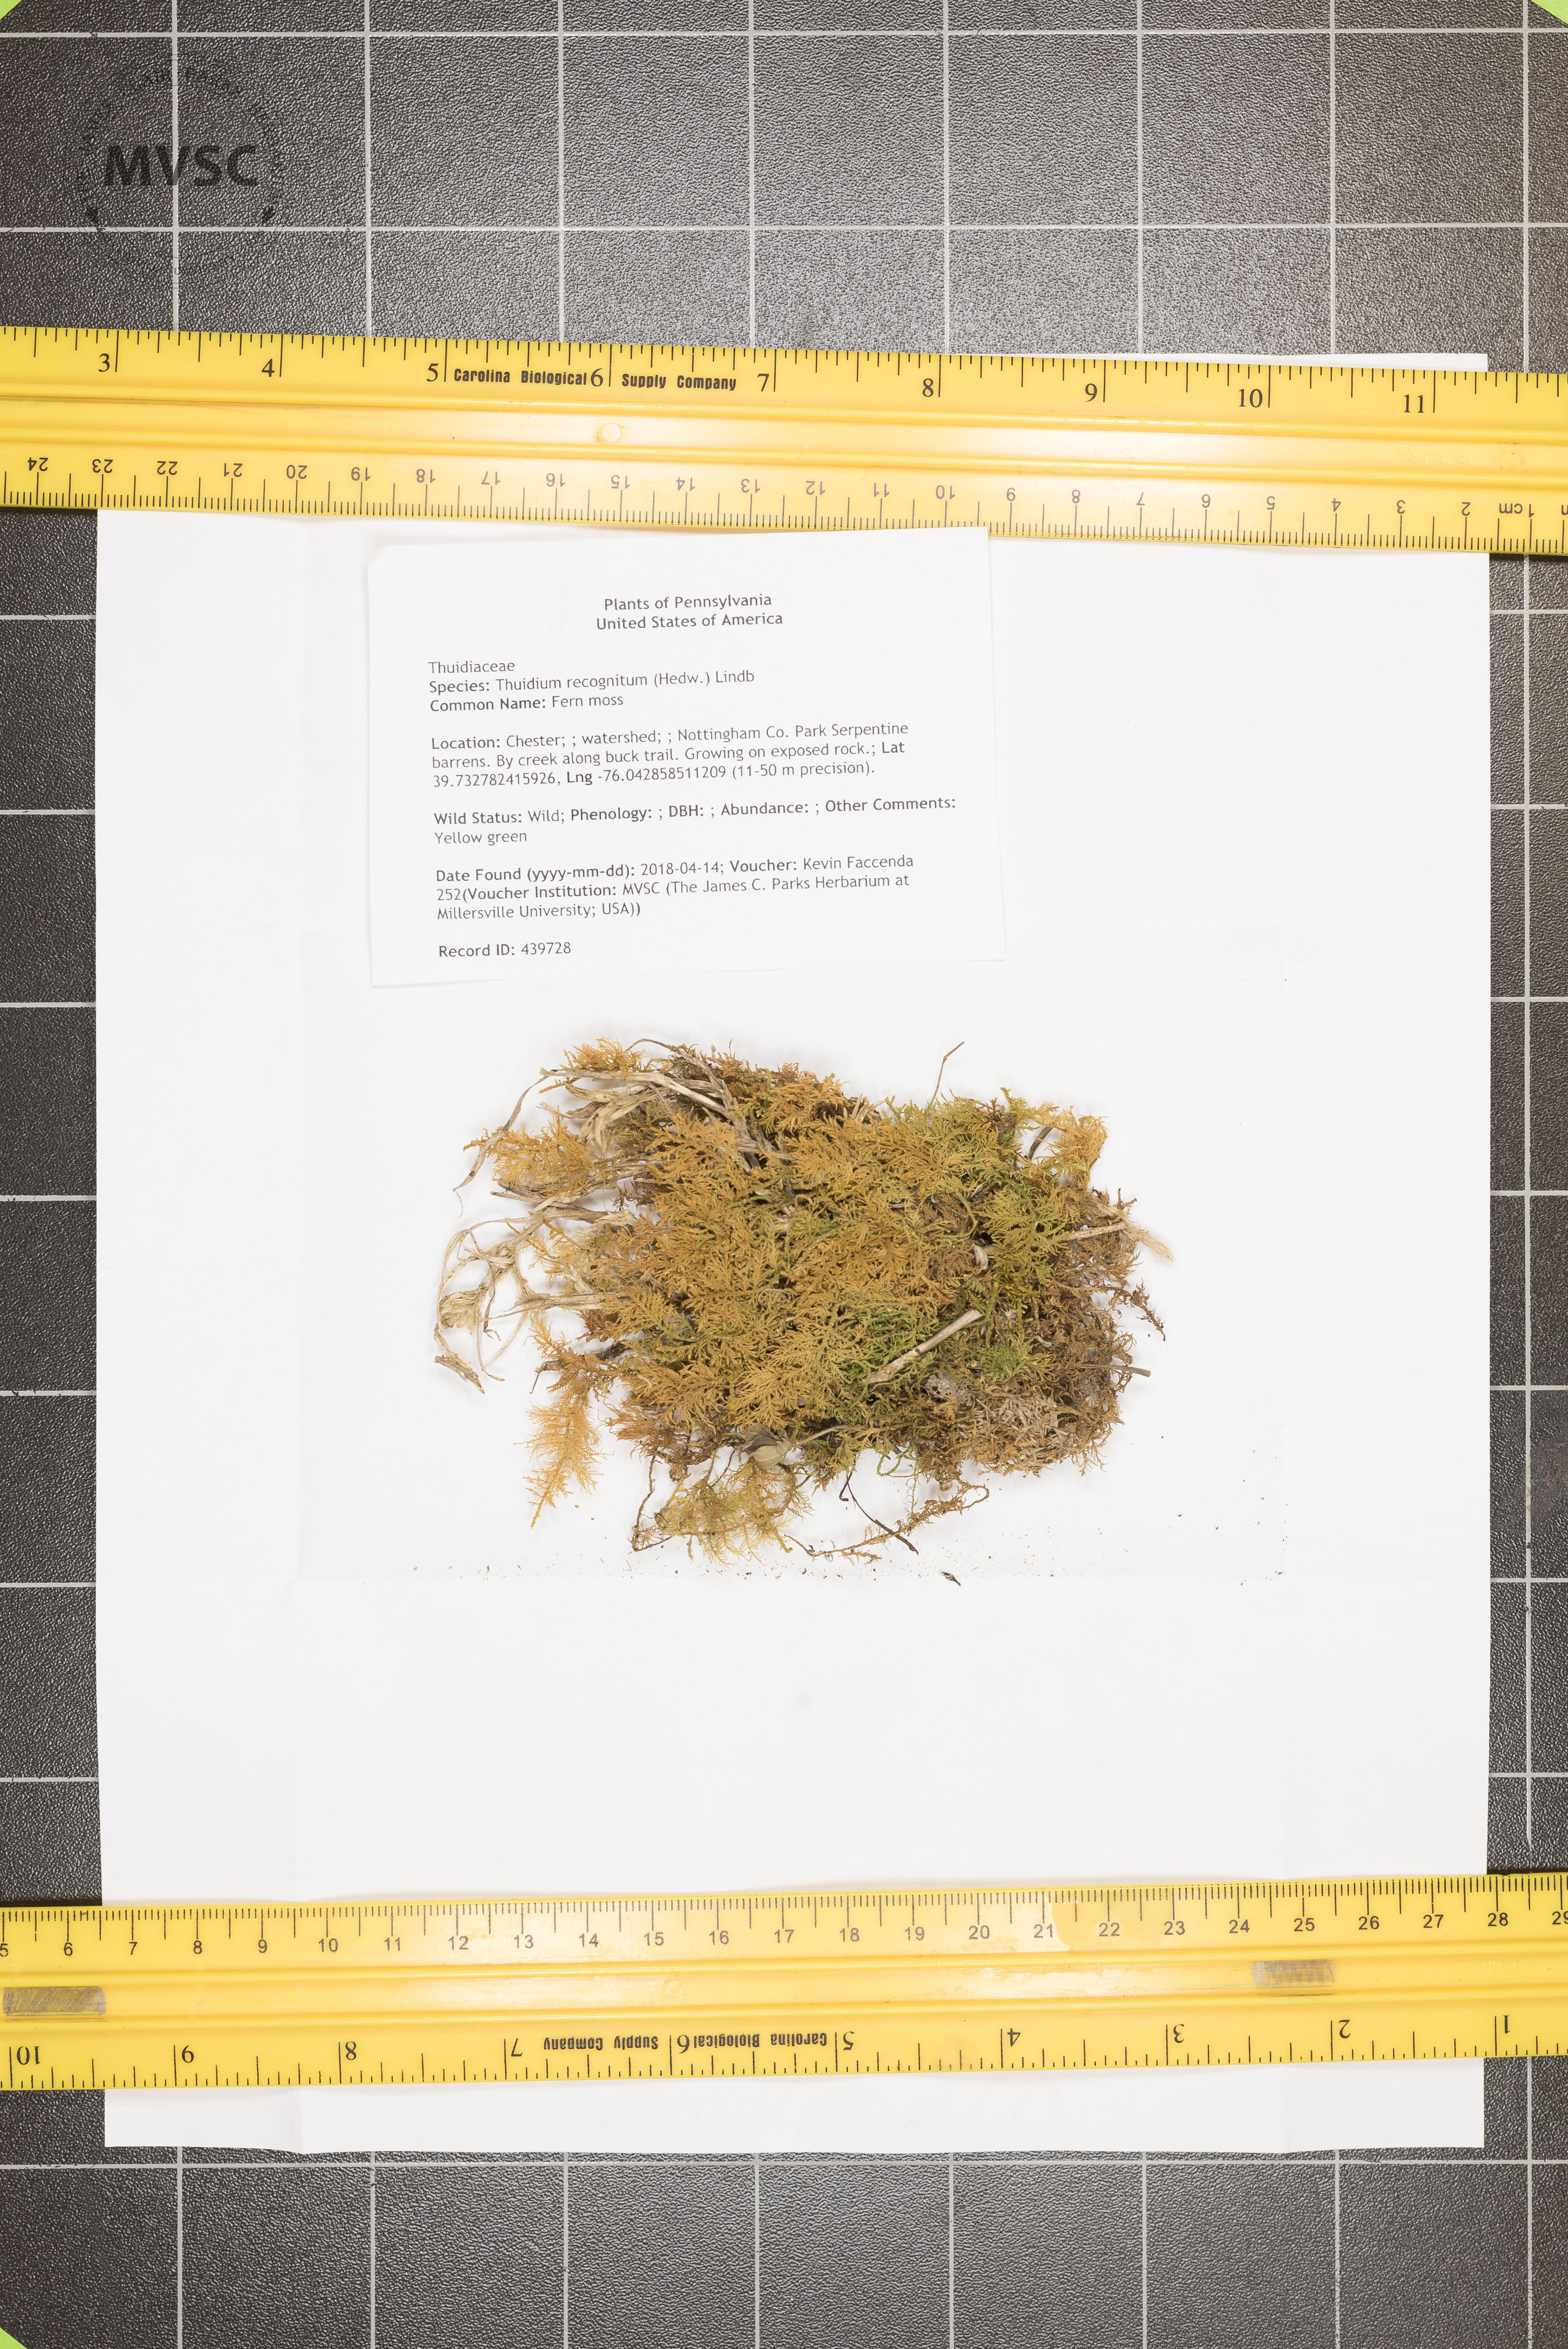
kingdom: Plantae
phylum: Bryophyta
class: Bryopsida
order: Hypnales
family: Thuidiaceae
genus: Thuidium
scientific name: Thuidium recognitum
